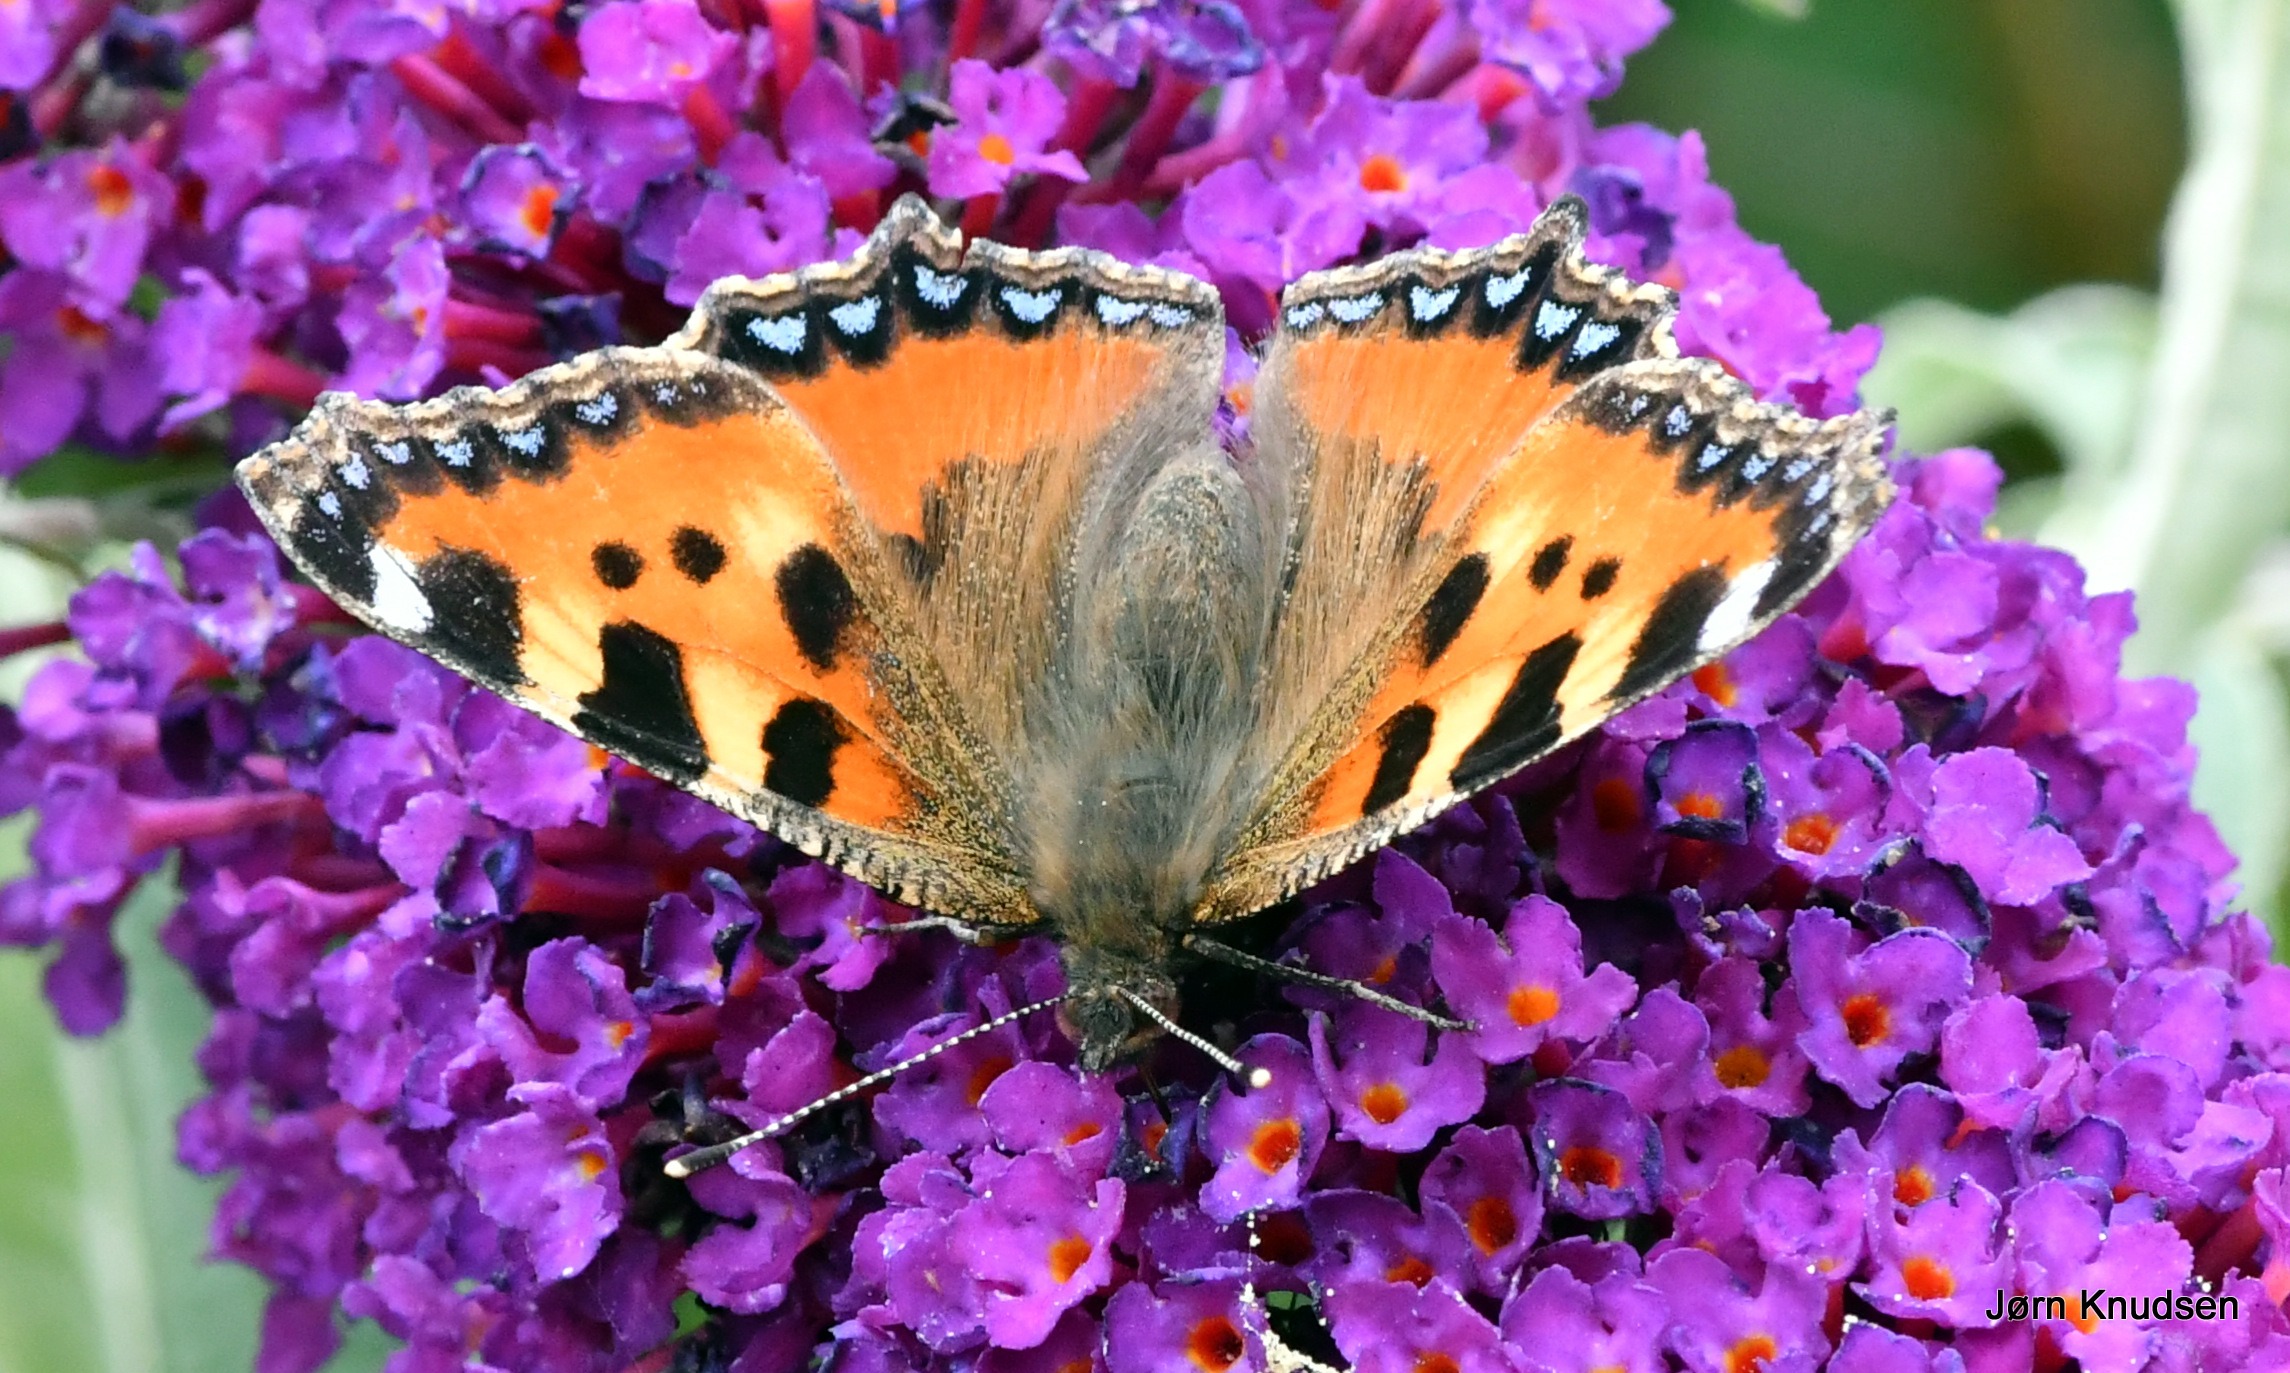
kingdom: Animalia
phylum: Arthropoda
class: Insecta
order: Lepidoptera
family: Nymphalidae
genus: Aglais
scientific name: Aglais urticae
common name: Nældens takvinge
